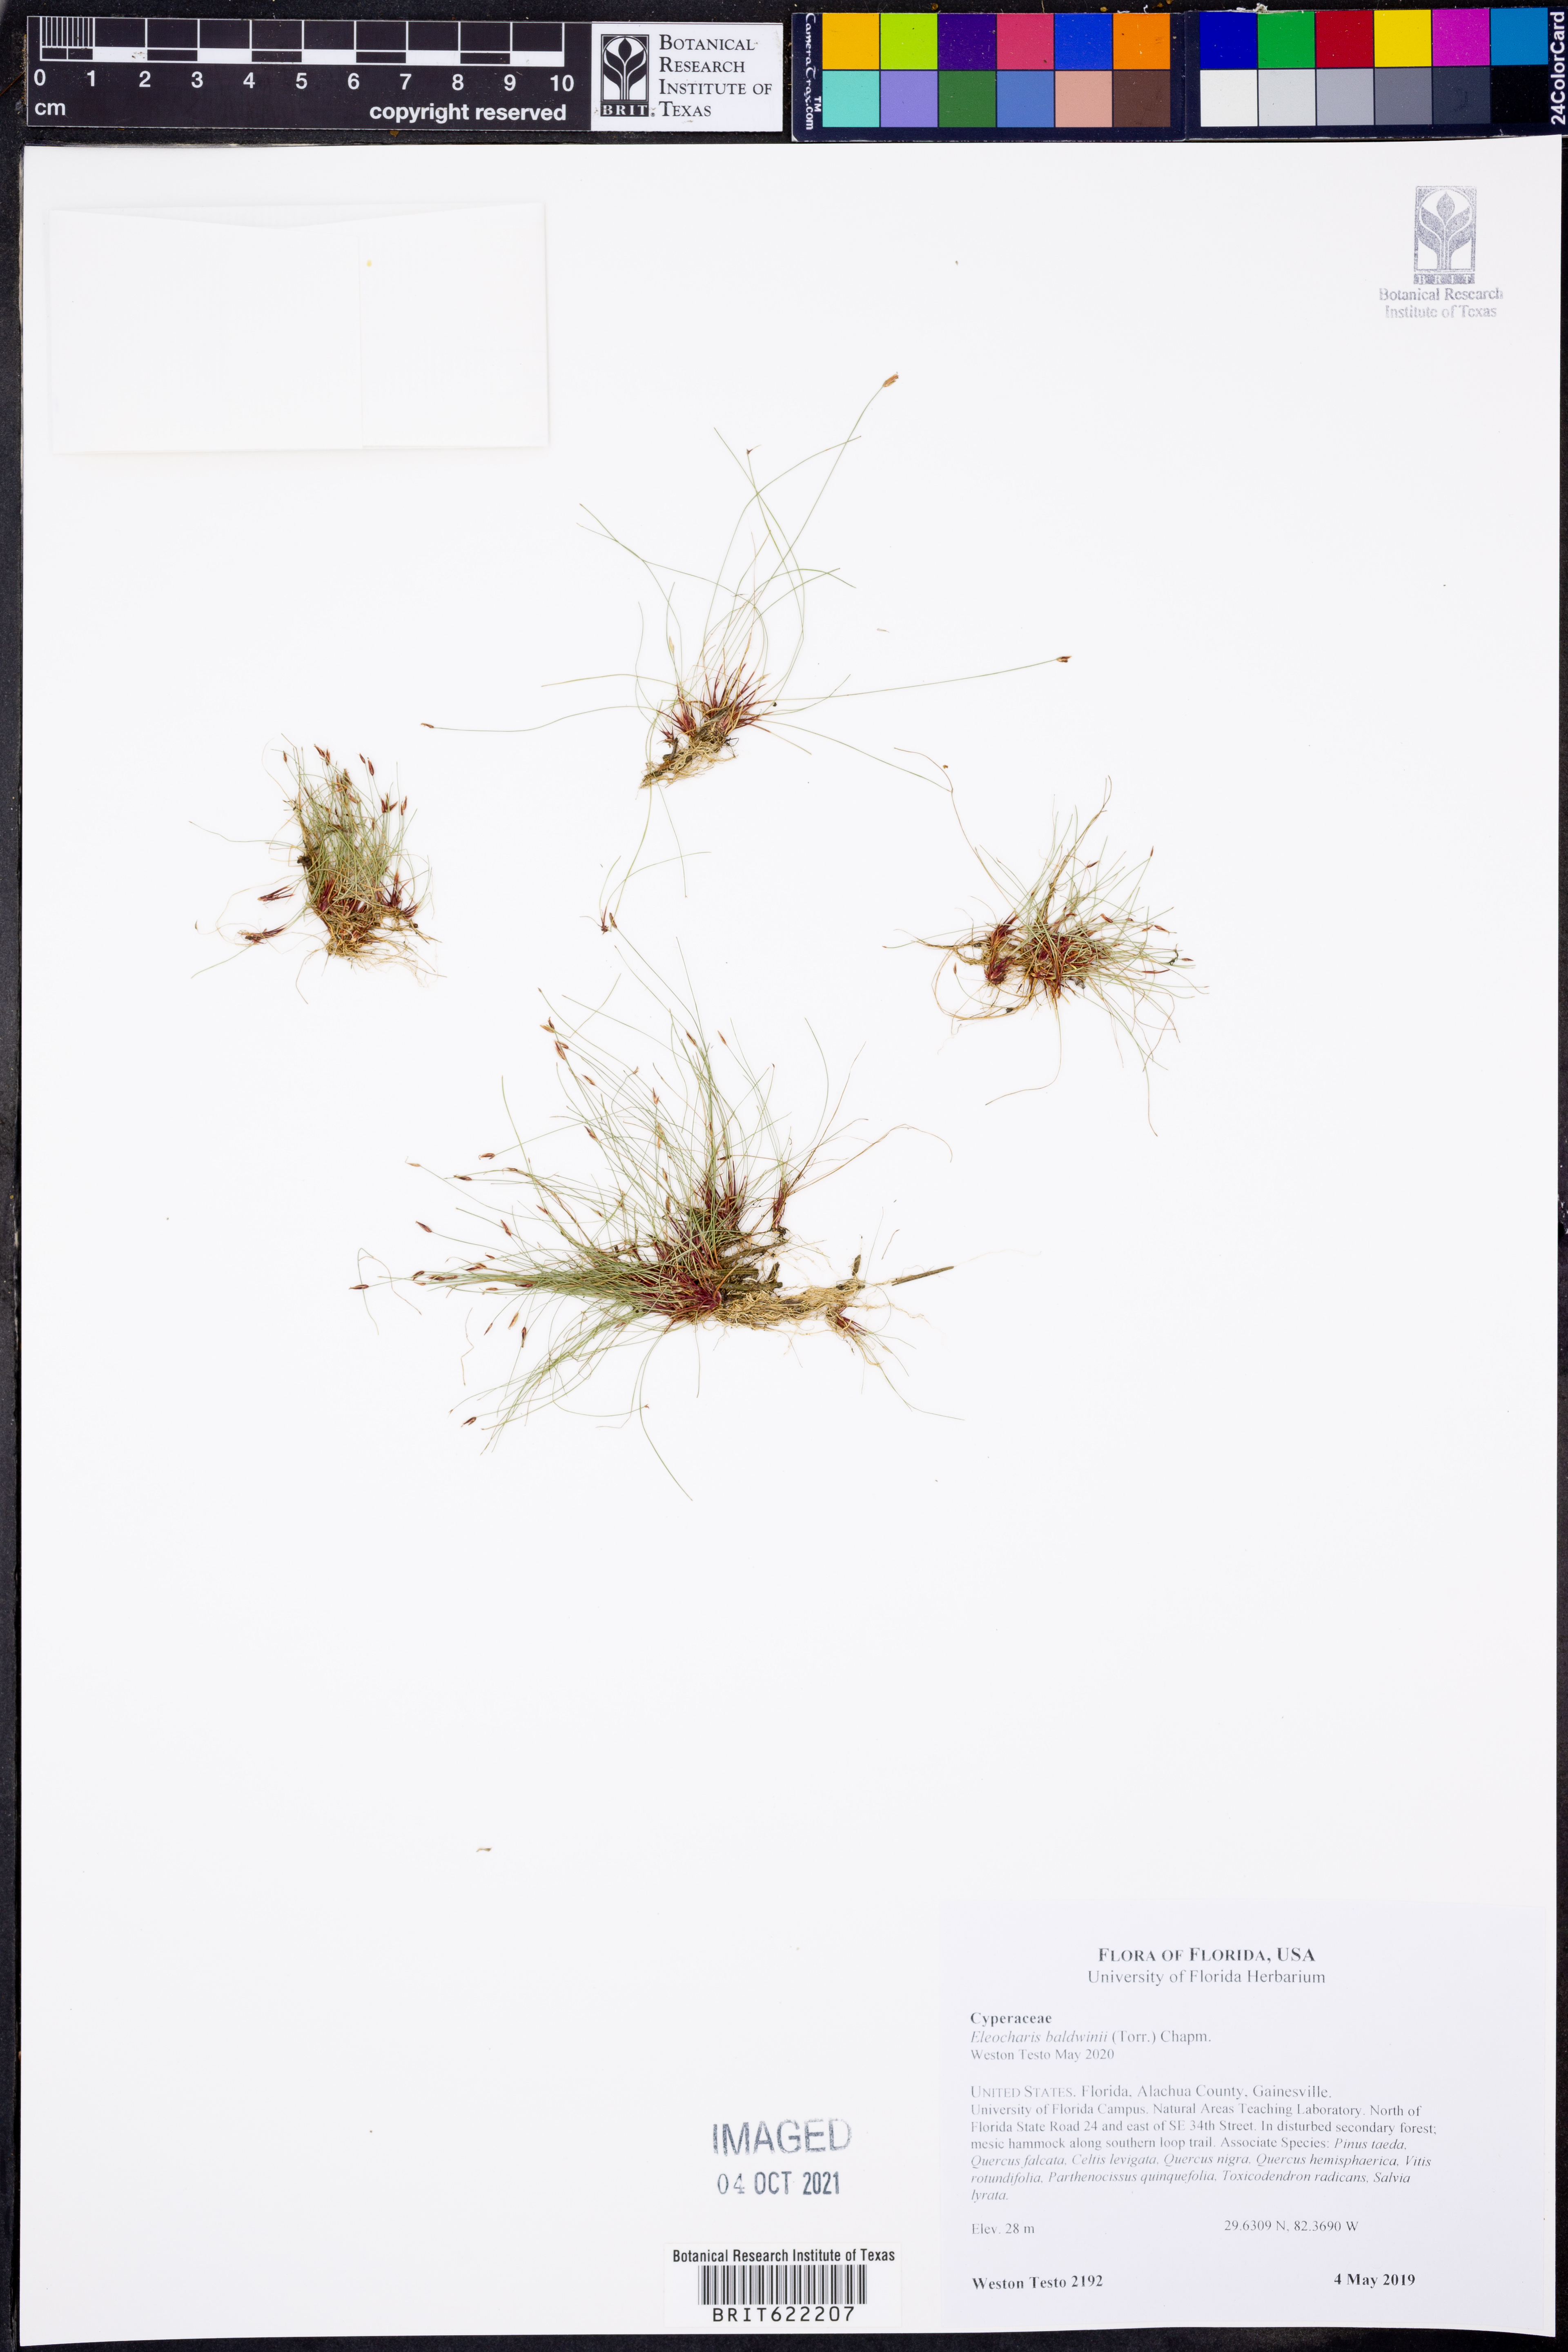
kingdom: Plantae
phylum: Tracheophyta
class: Liliopsida
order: Poales
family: Cyperaceae
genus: Eleocharis
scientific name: Eleocharis baldwinii
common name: Baldwin's spike-rush
